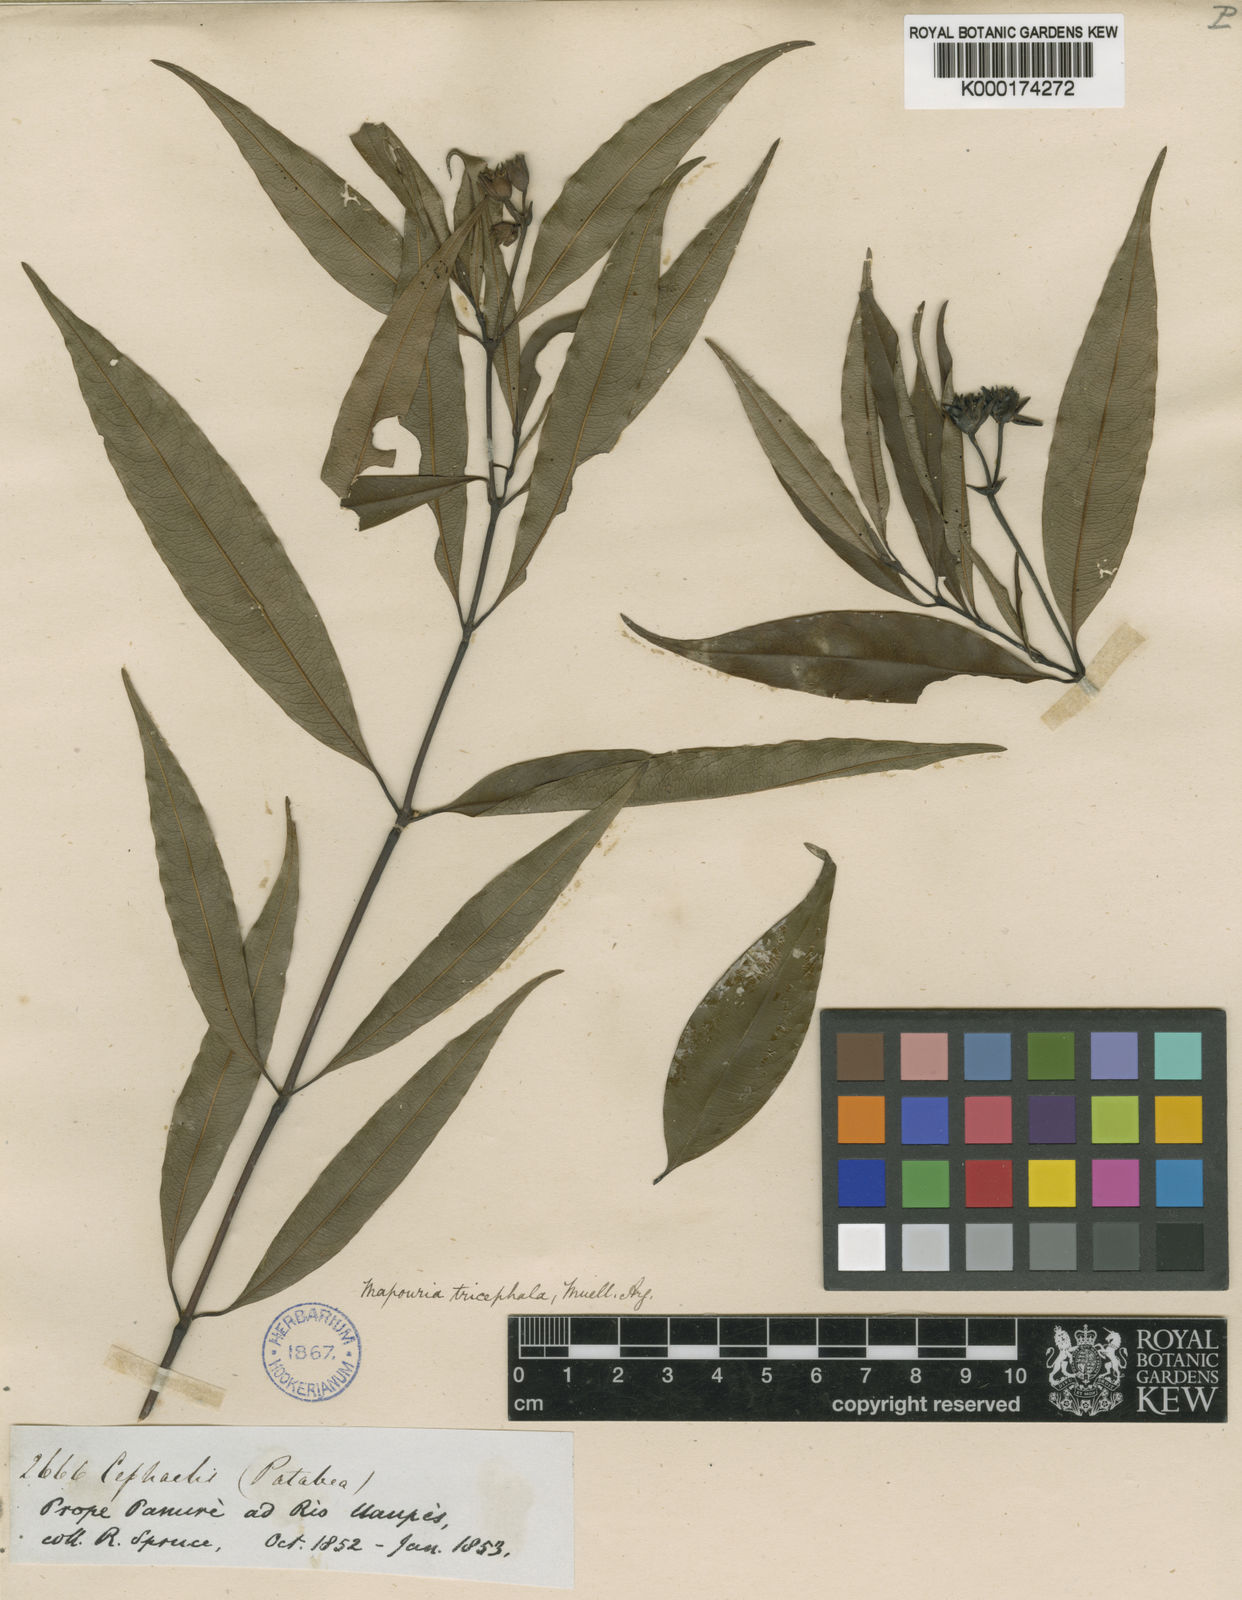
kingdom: Plantae
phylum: Tracheophyta
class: Magnoliopsida
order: Gentianales
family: Rubiaceae
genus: Psychotria
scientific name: Psychotria
